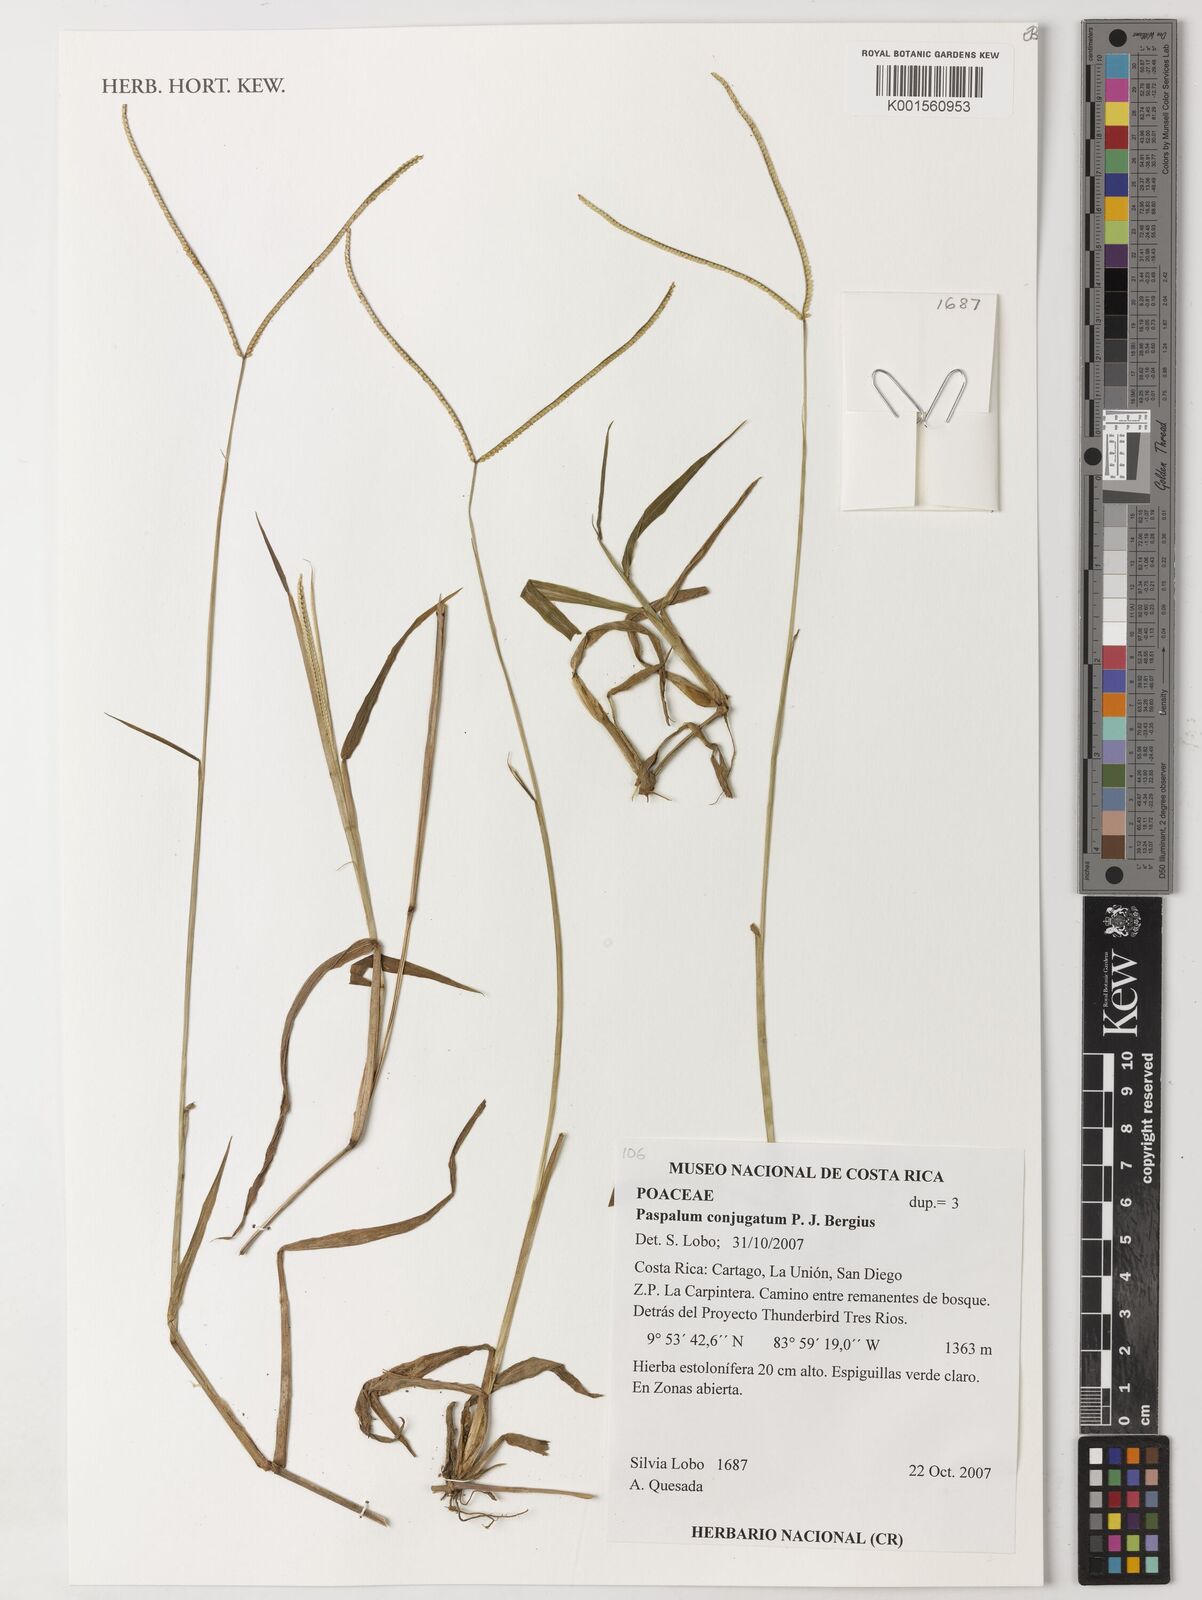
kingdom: Plantae
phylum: Tracheophyta
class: Liliopsida
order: Poales
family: Poaceae
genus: Paspalum
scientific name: Paspalum conjugatum
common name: Hilograss
